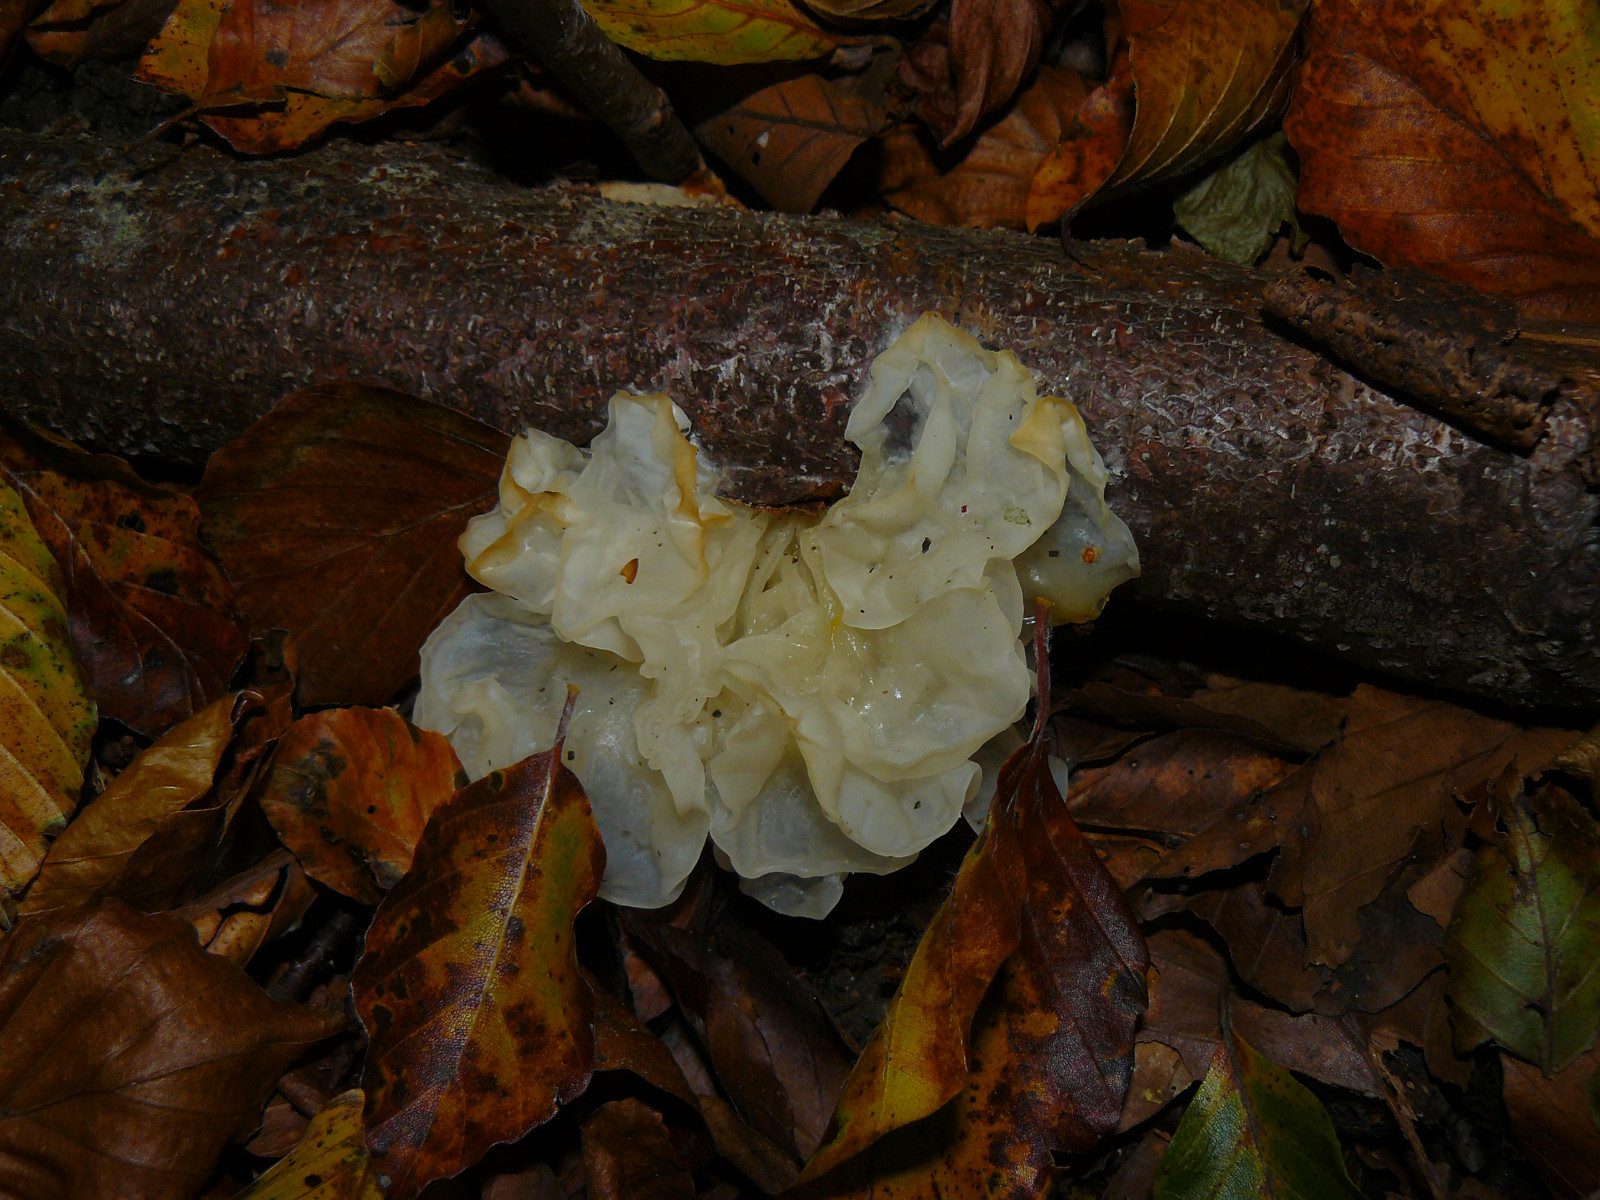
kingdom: Fungi
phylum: Basidiomycota
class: Tremellomycetes
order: Tremellales
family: Tremellaceae
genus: Tremella
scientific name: Tremella mesenterica
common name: gul bævresvamp
